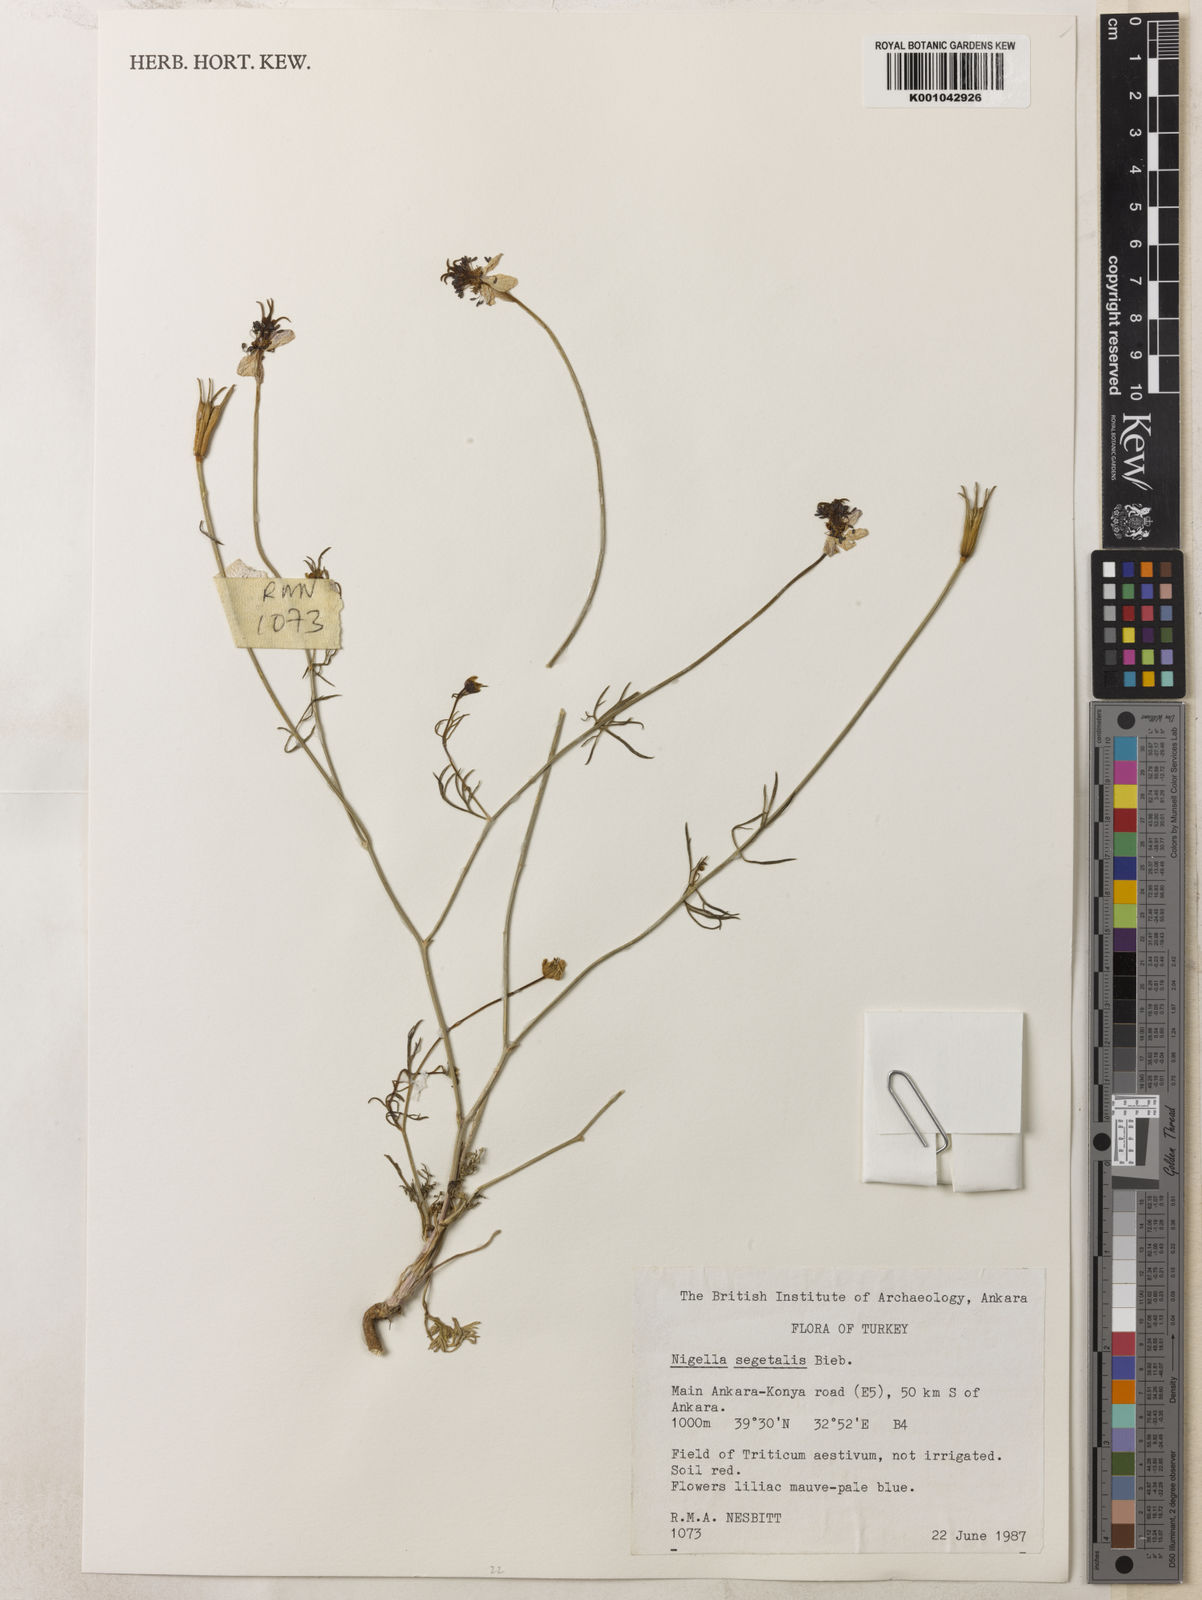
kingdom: Plantae
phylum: Tracheophyta
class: Magnoliopsida
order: Ranunculales
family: Ranunculaceae
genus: Nigella
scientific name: Nigella segetalis
